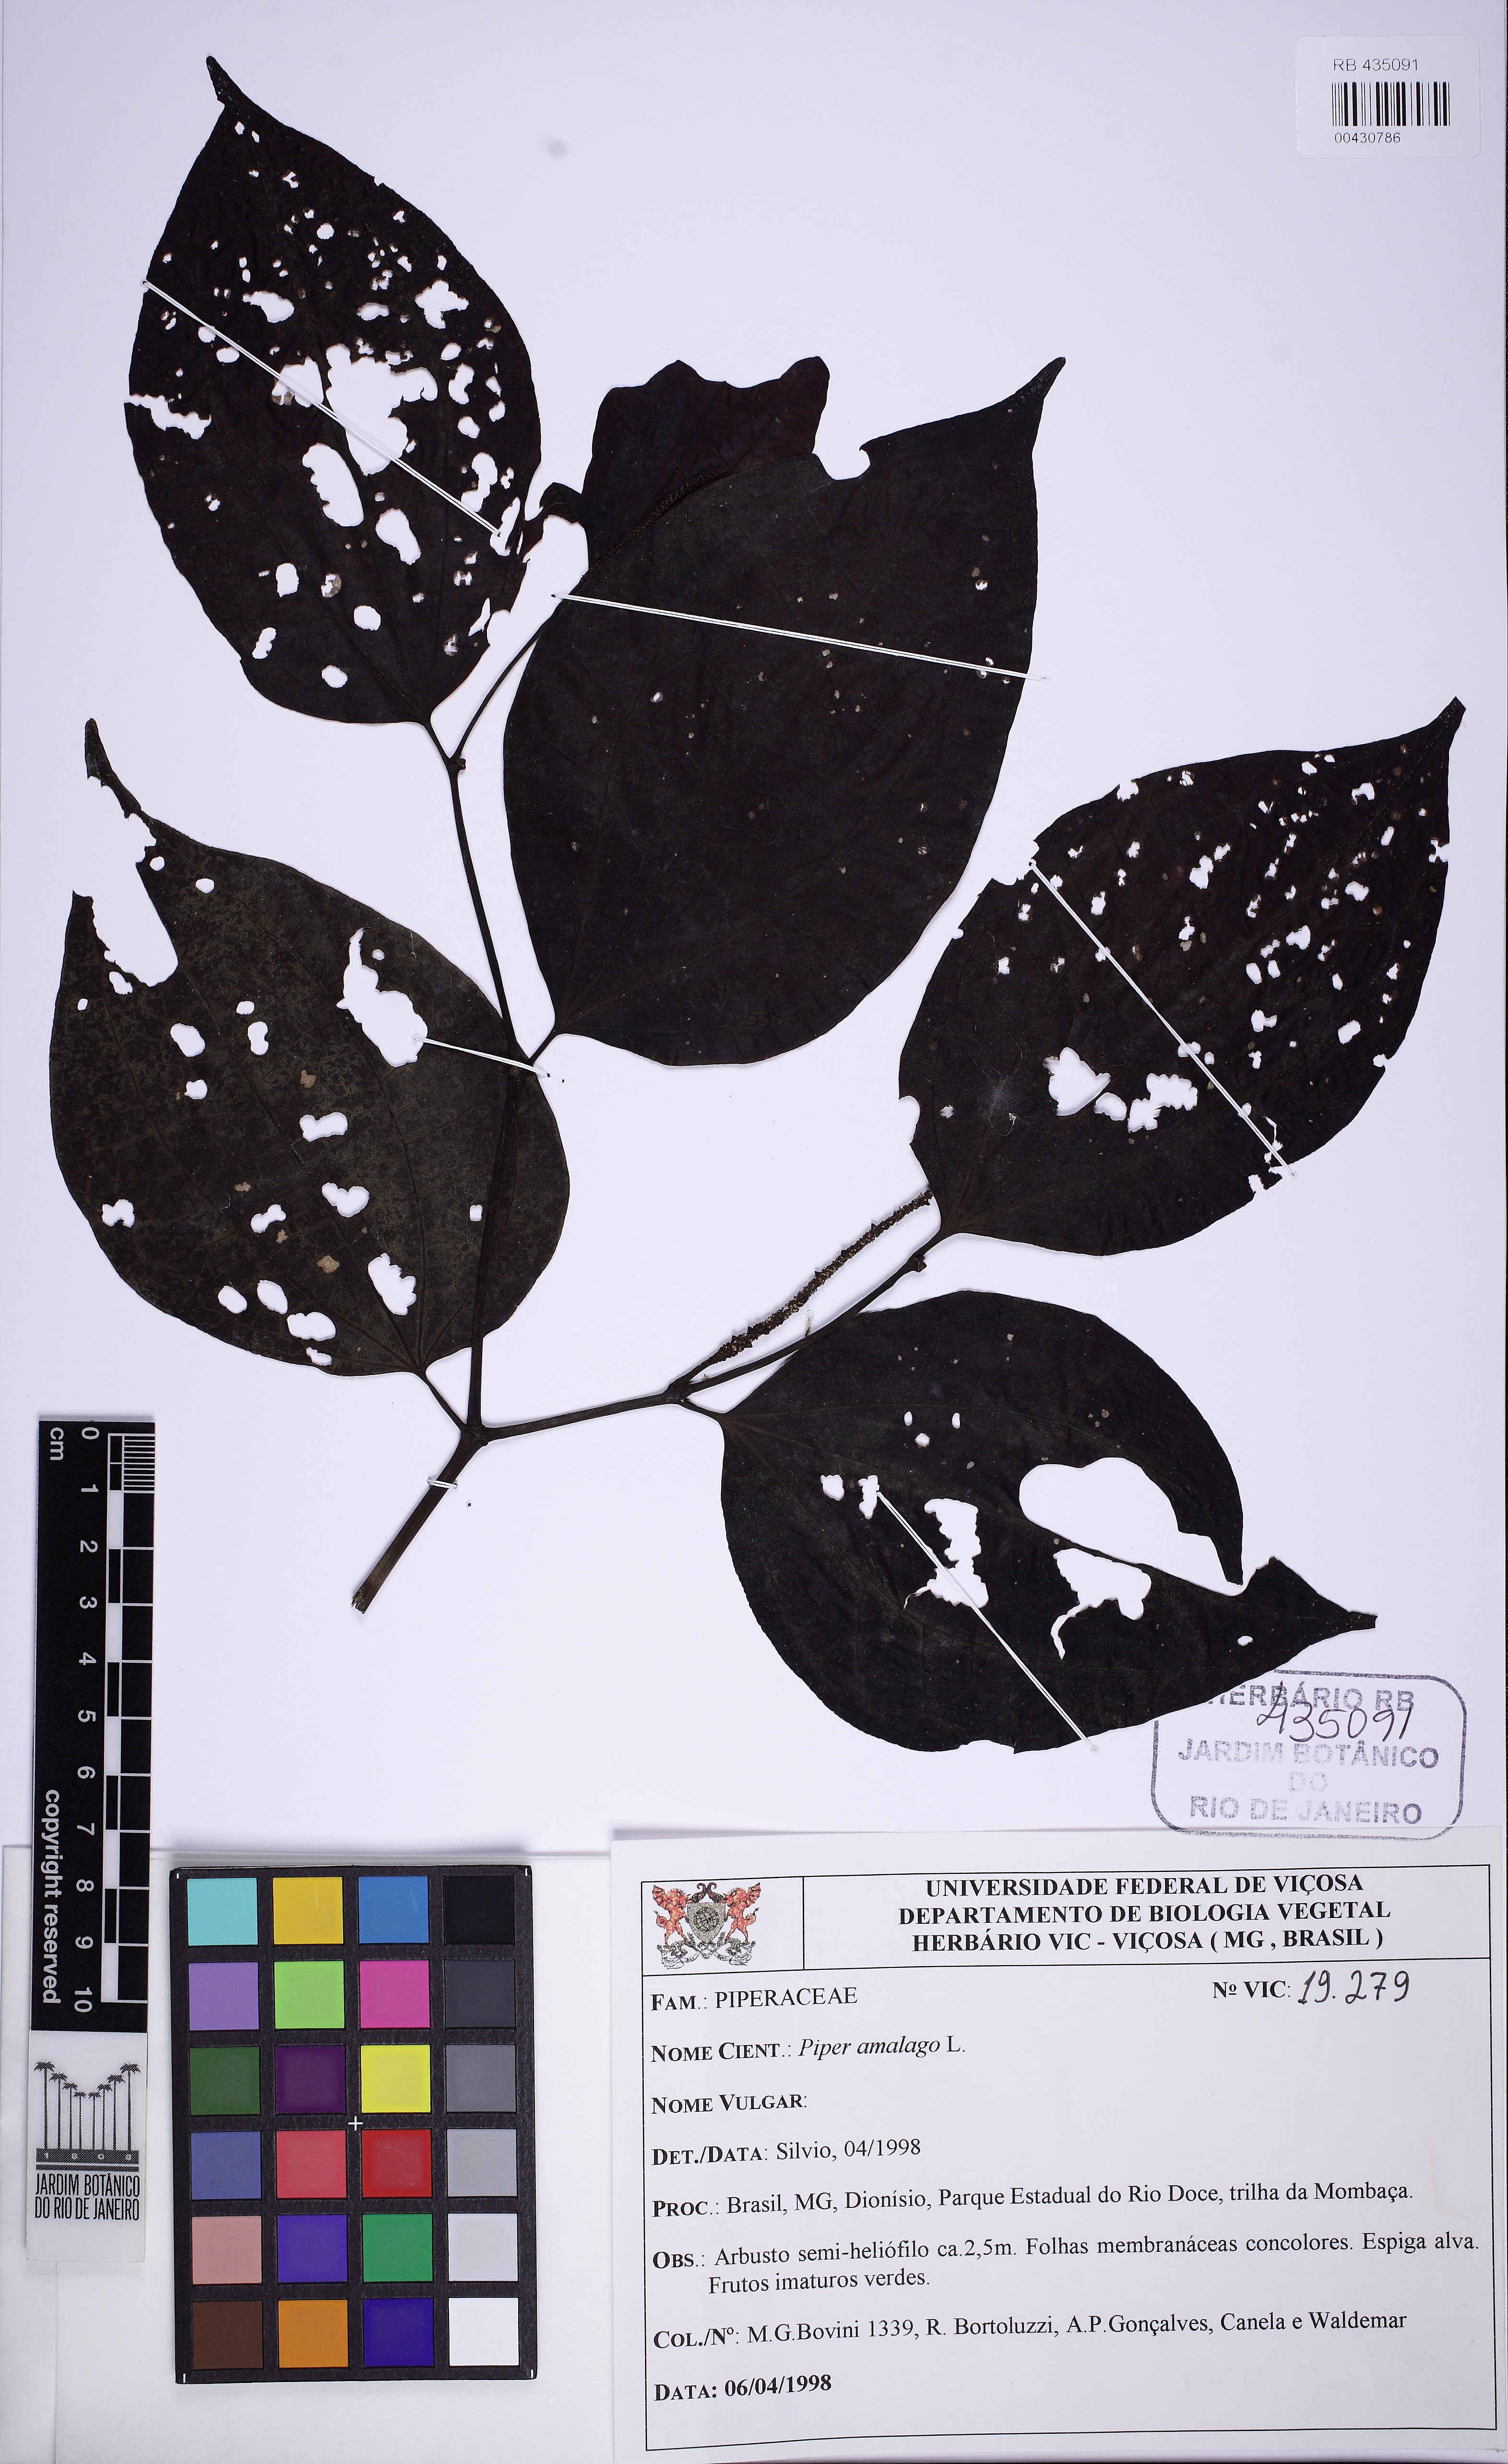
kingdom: Plantae
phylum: Tracheophyta
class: Magnoliopsida
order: Piperales
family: Piperaceae
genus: Piper
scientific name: Piper amalago
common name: Pepper-elder
